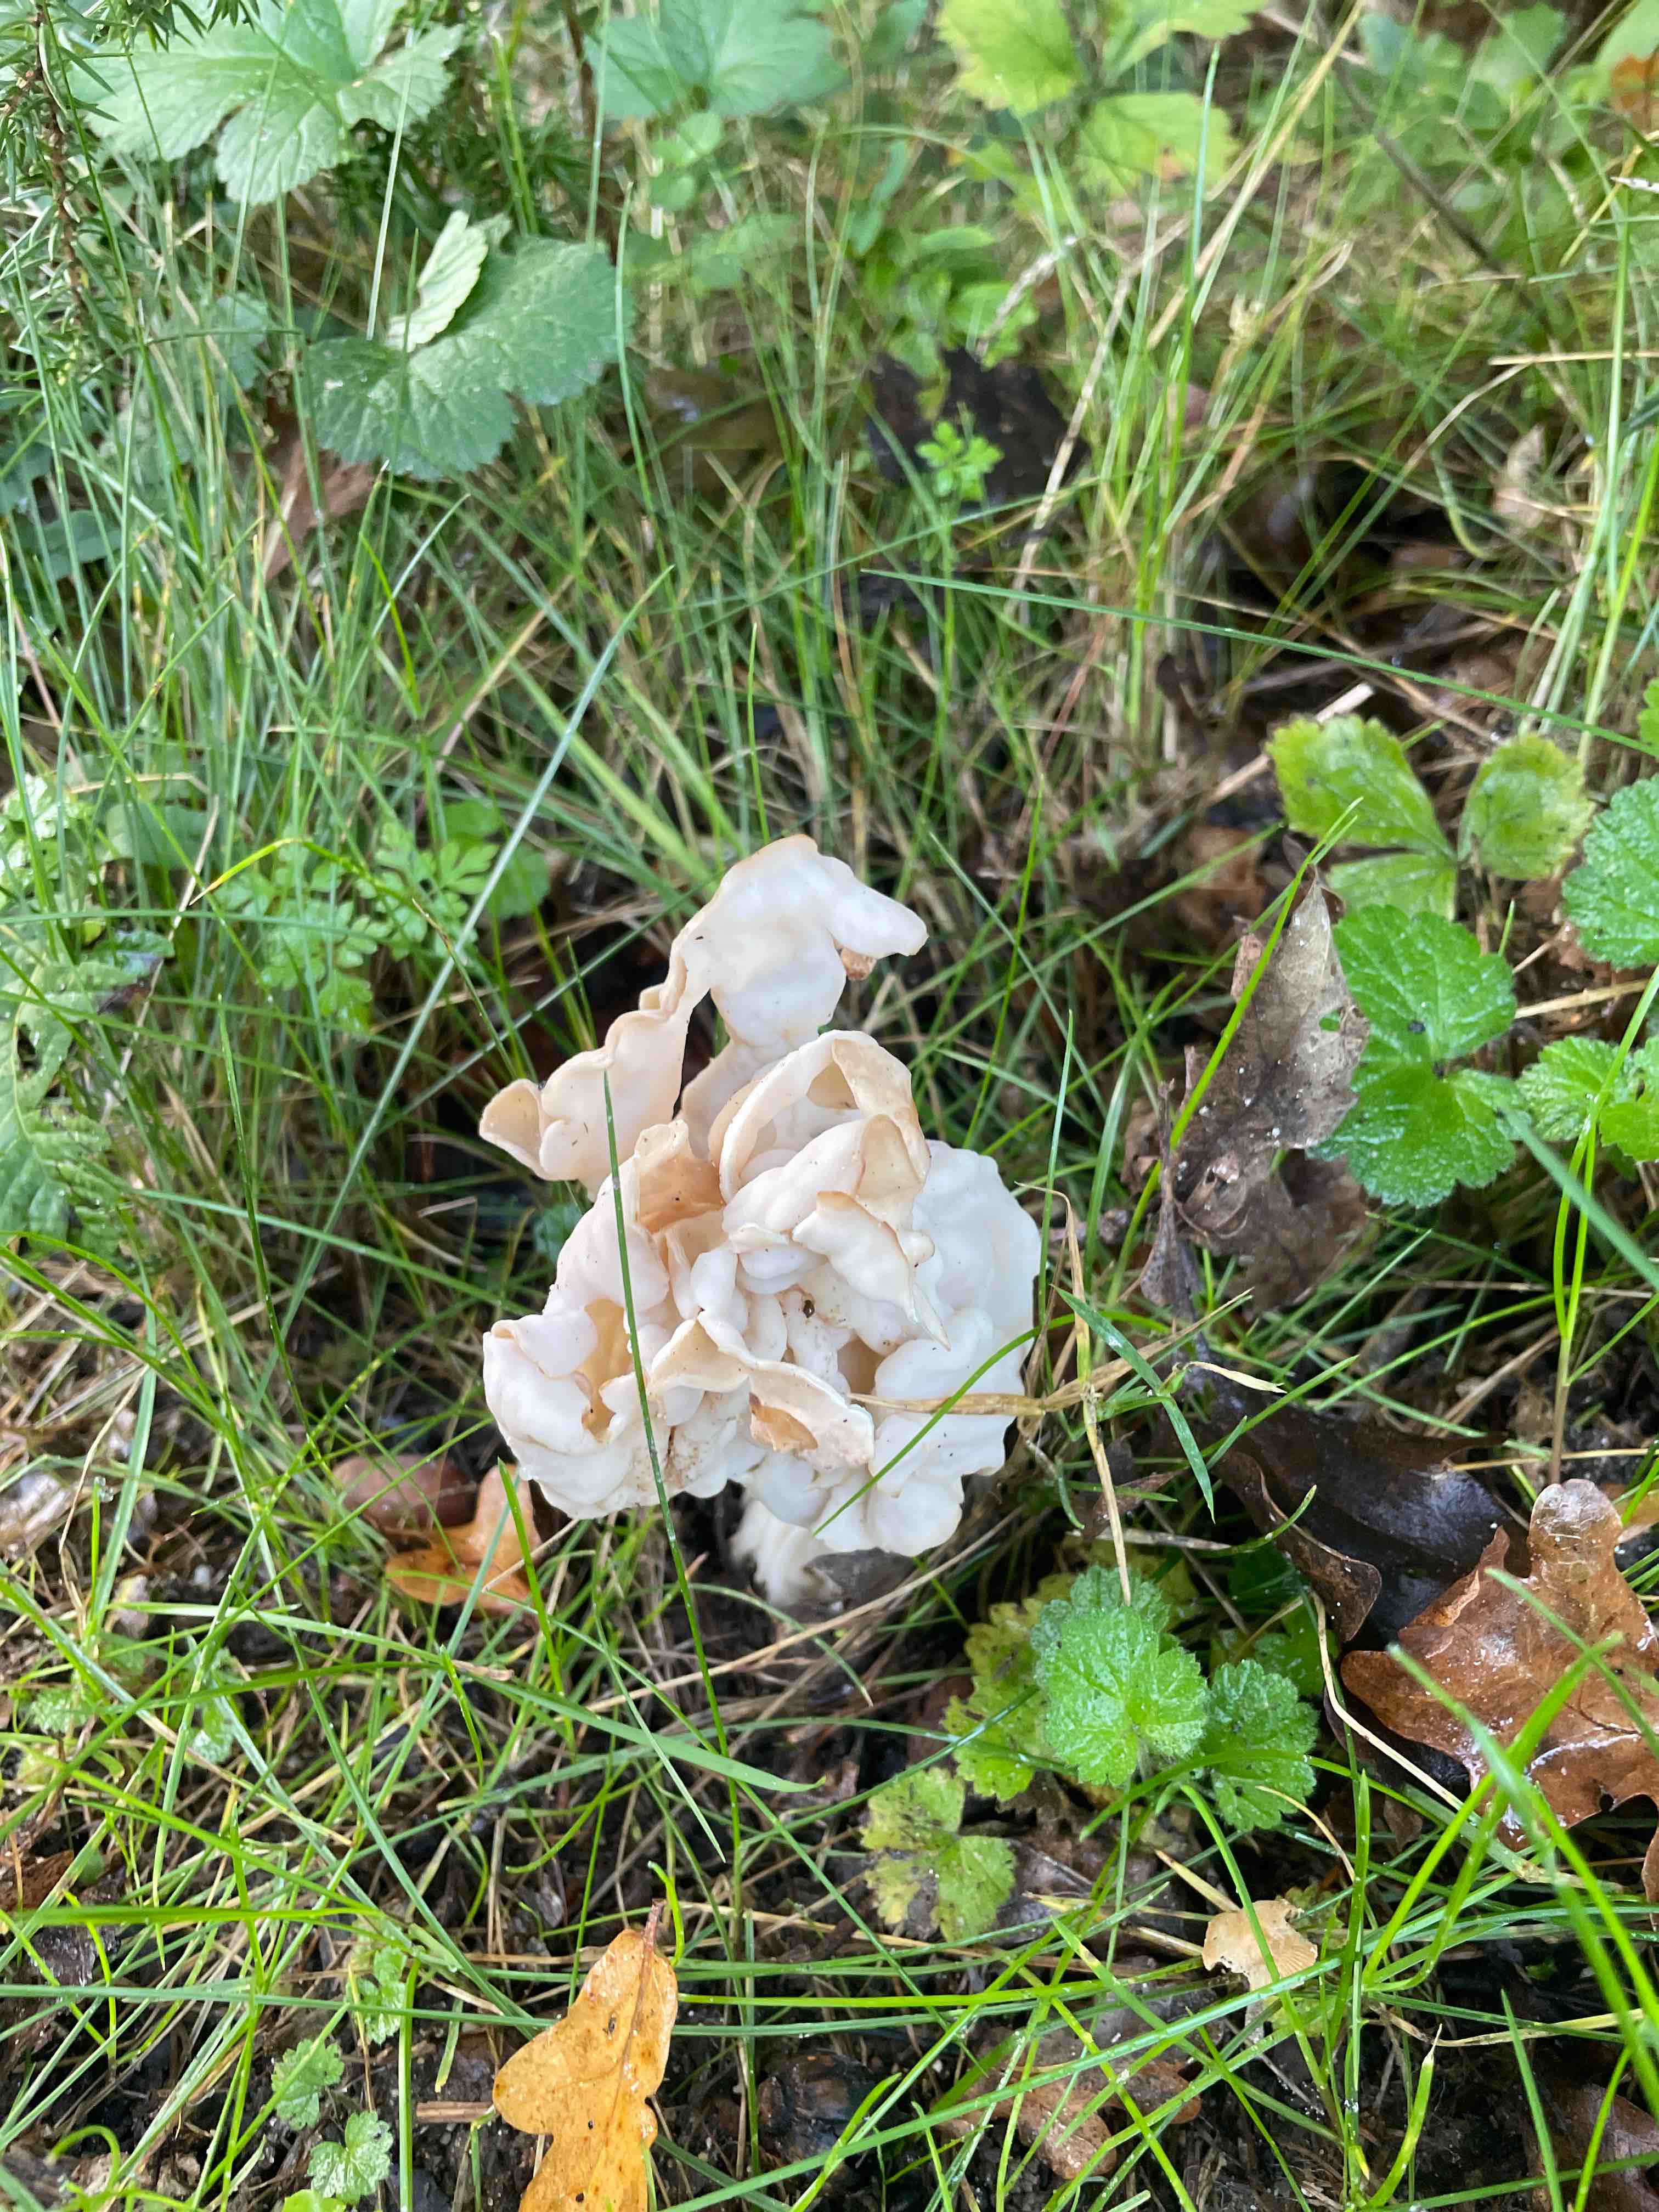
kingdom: Fungi
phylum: Ascomycota
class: Pezizomycetes
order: Pezizales
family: Helvellaceae
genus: Helvella
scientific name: Helvella crispa
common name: kruset foldhat
